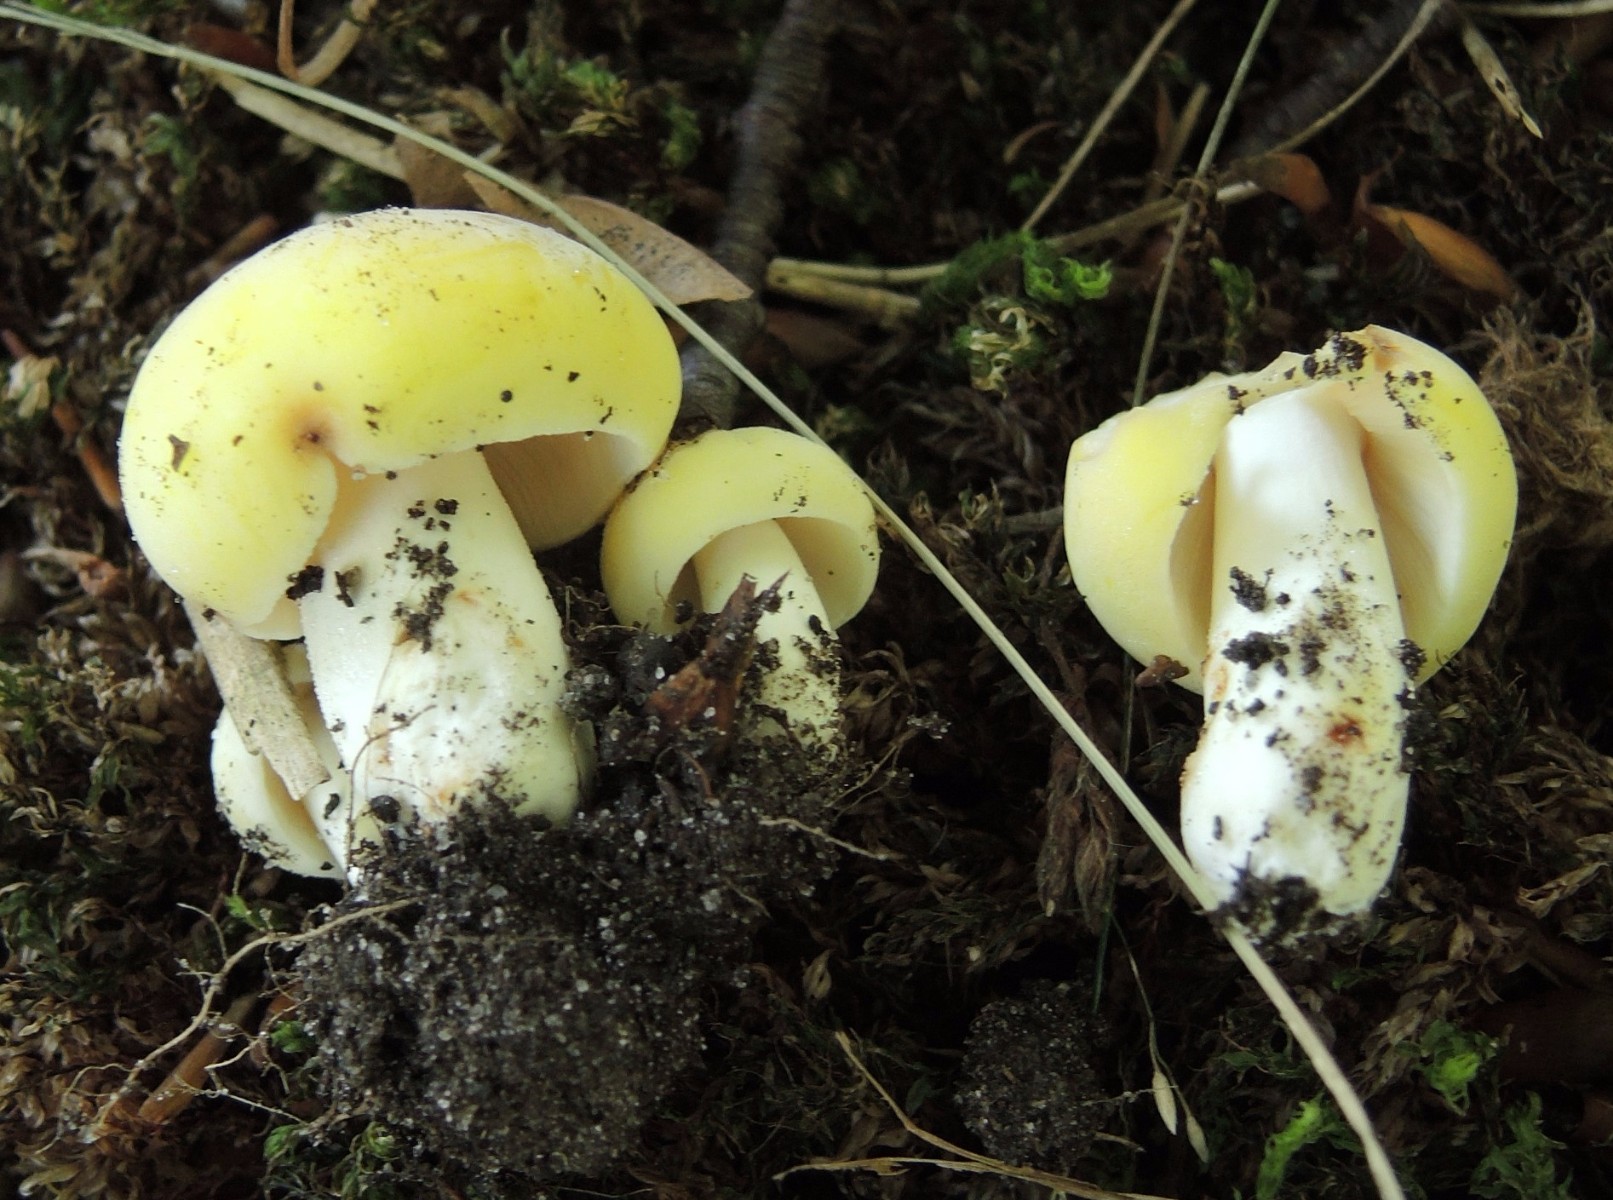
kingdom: Fungi
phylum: Basidiomycota
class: Agaricomycetes
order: Russulales
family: Russulaceae
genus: Russula
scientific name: Russula violeipes
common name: ferskengul skørhat
